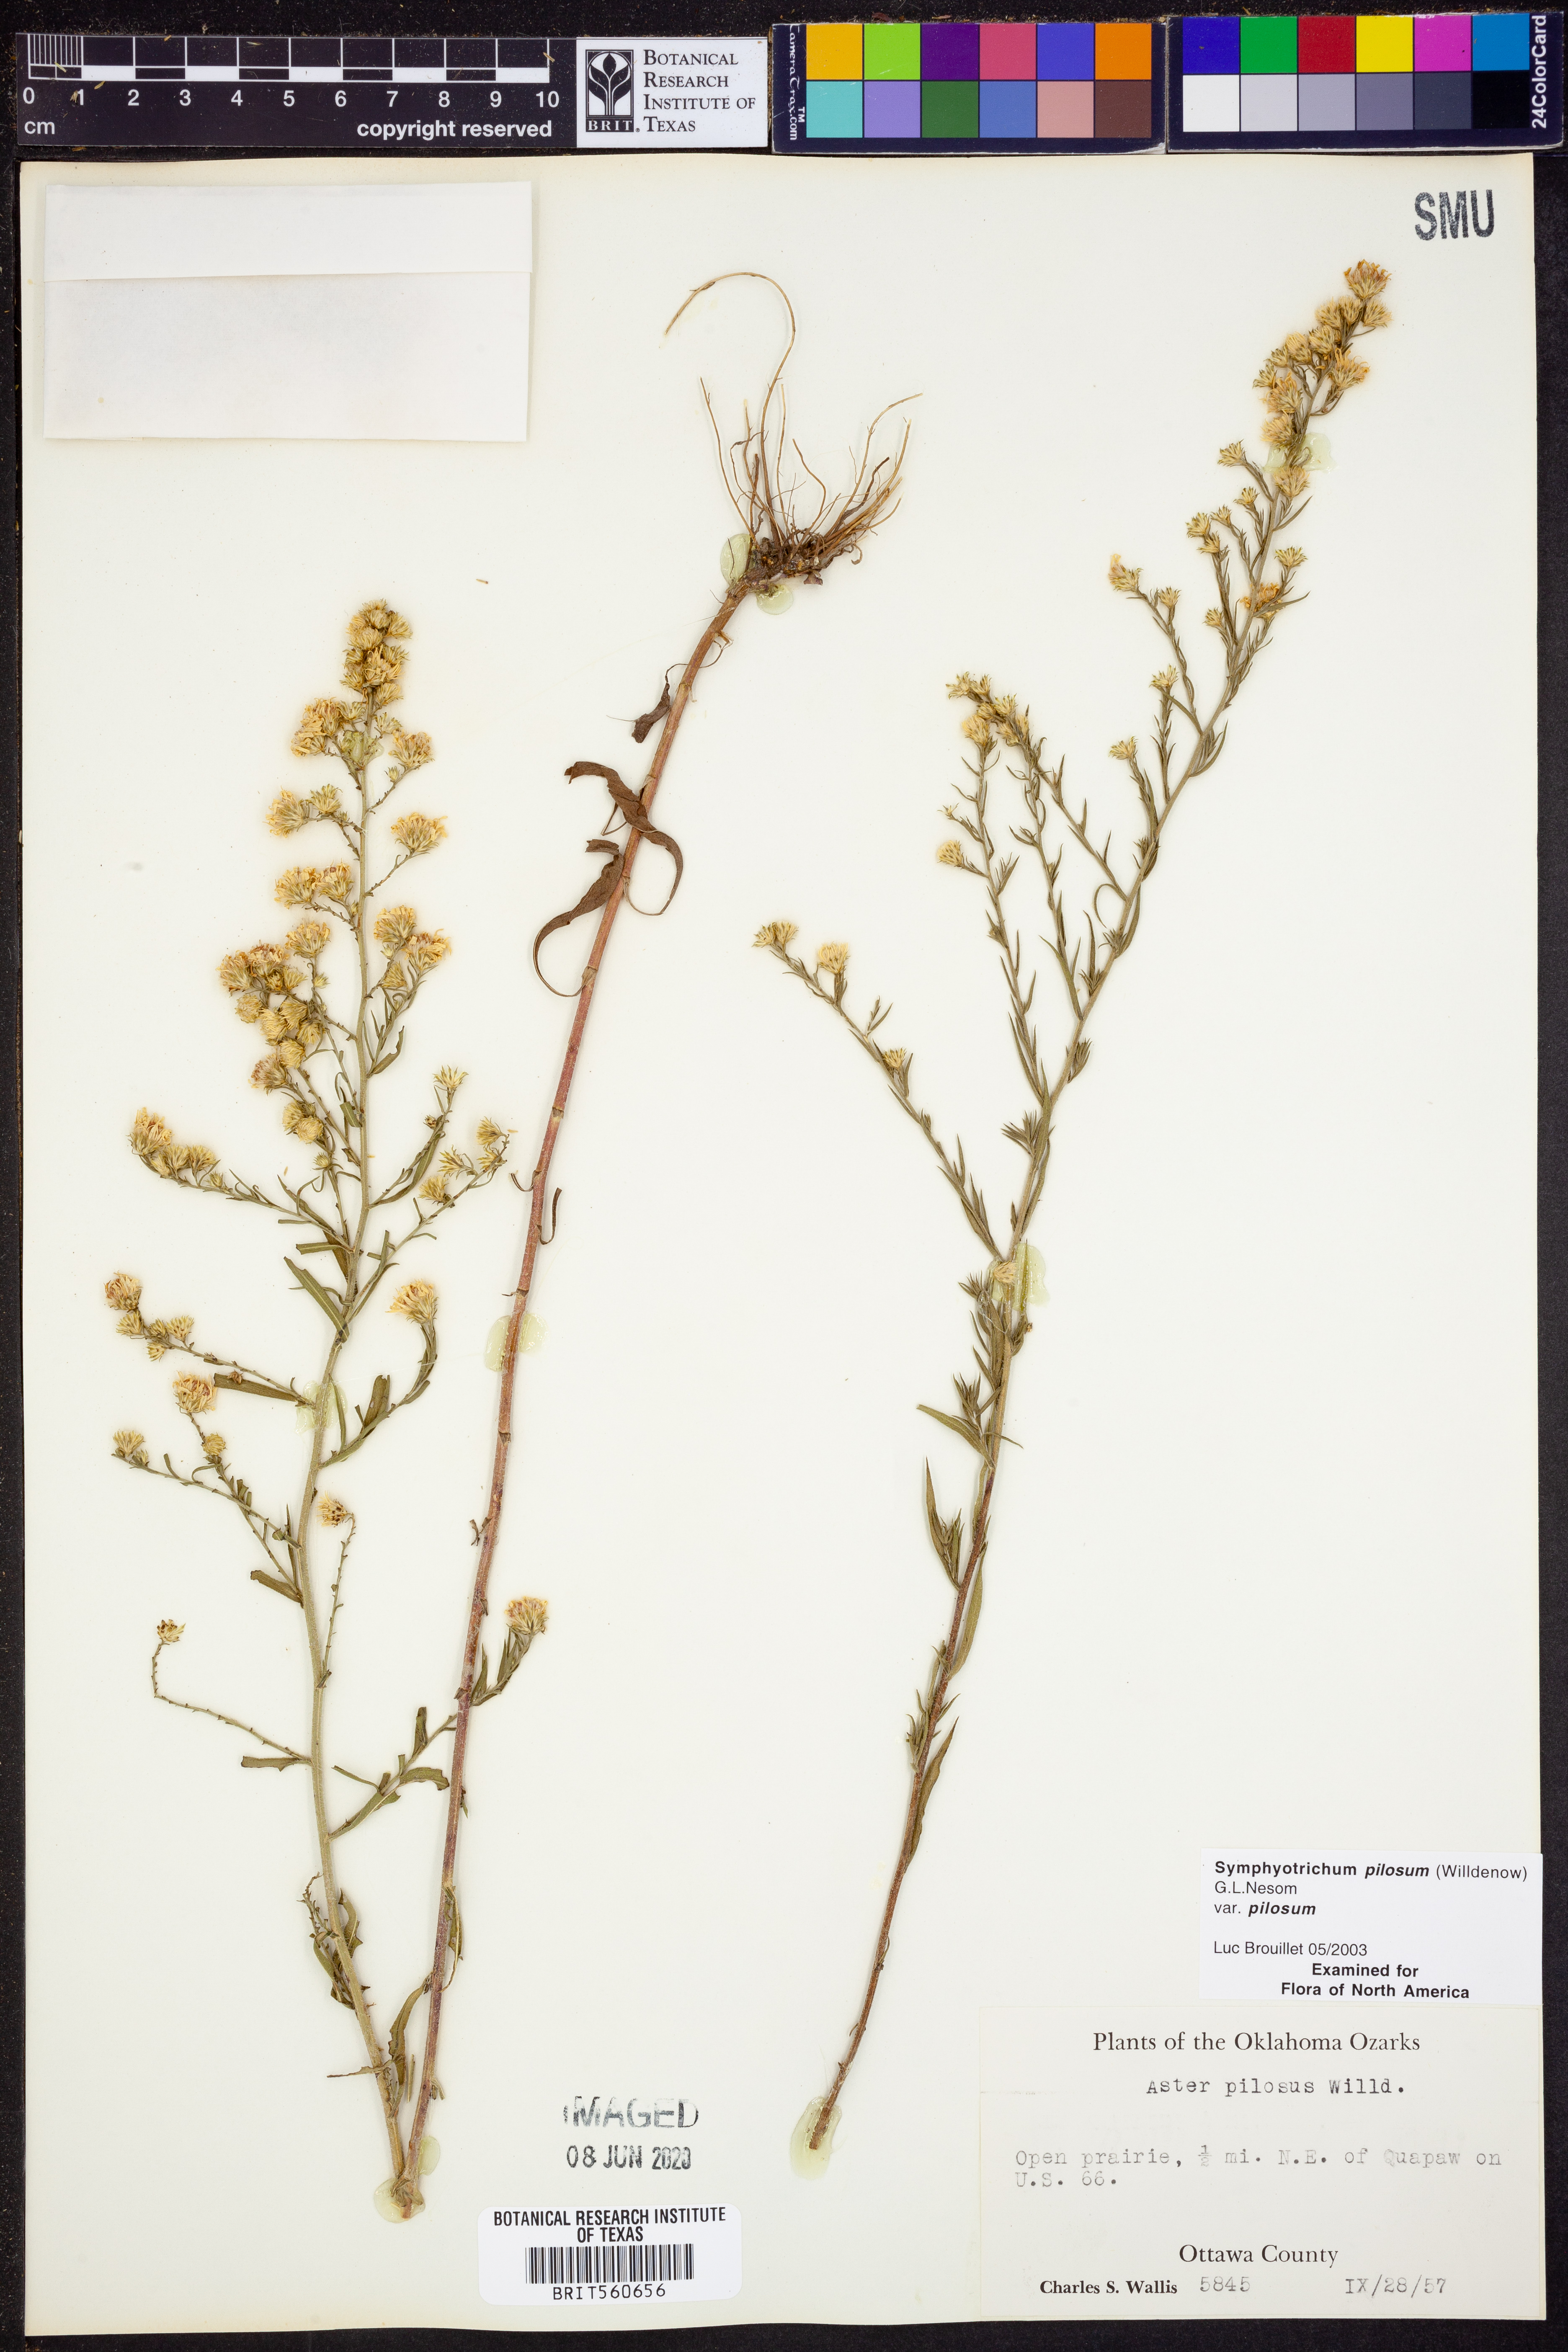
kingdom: Plantae
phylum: Tracheophyta
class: Magnoliopsida
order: Asterales
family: Asteraceae
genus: Symphyotrichum
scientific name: Symphyotrichum pilosum
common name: Awl aster
